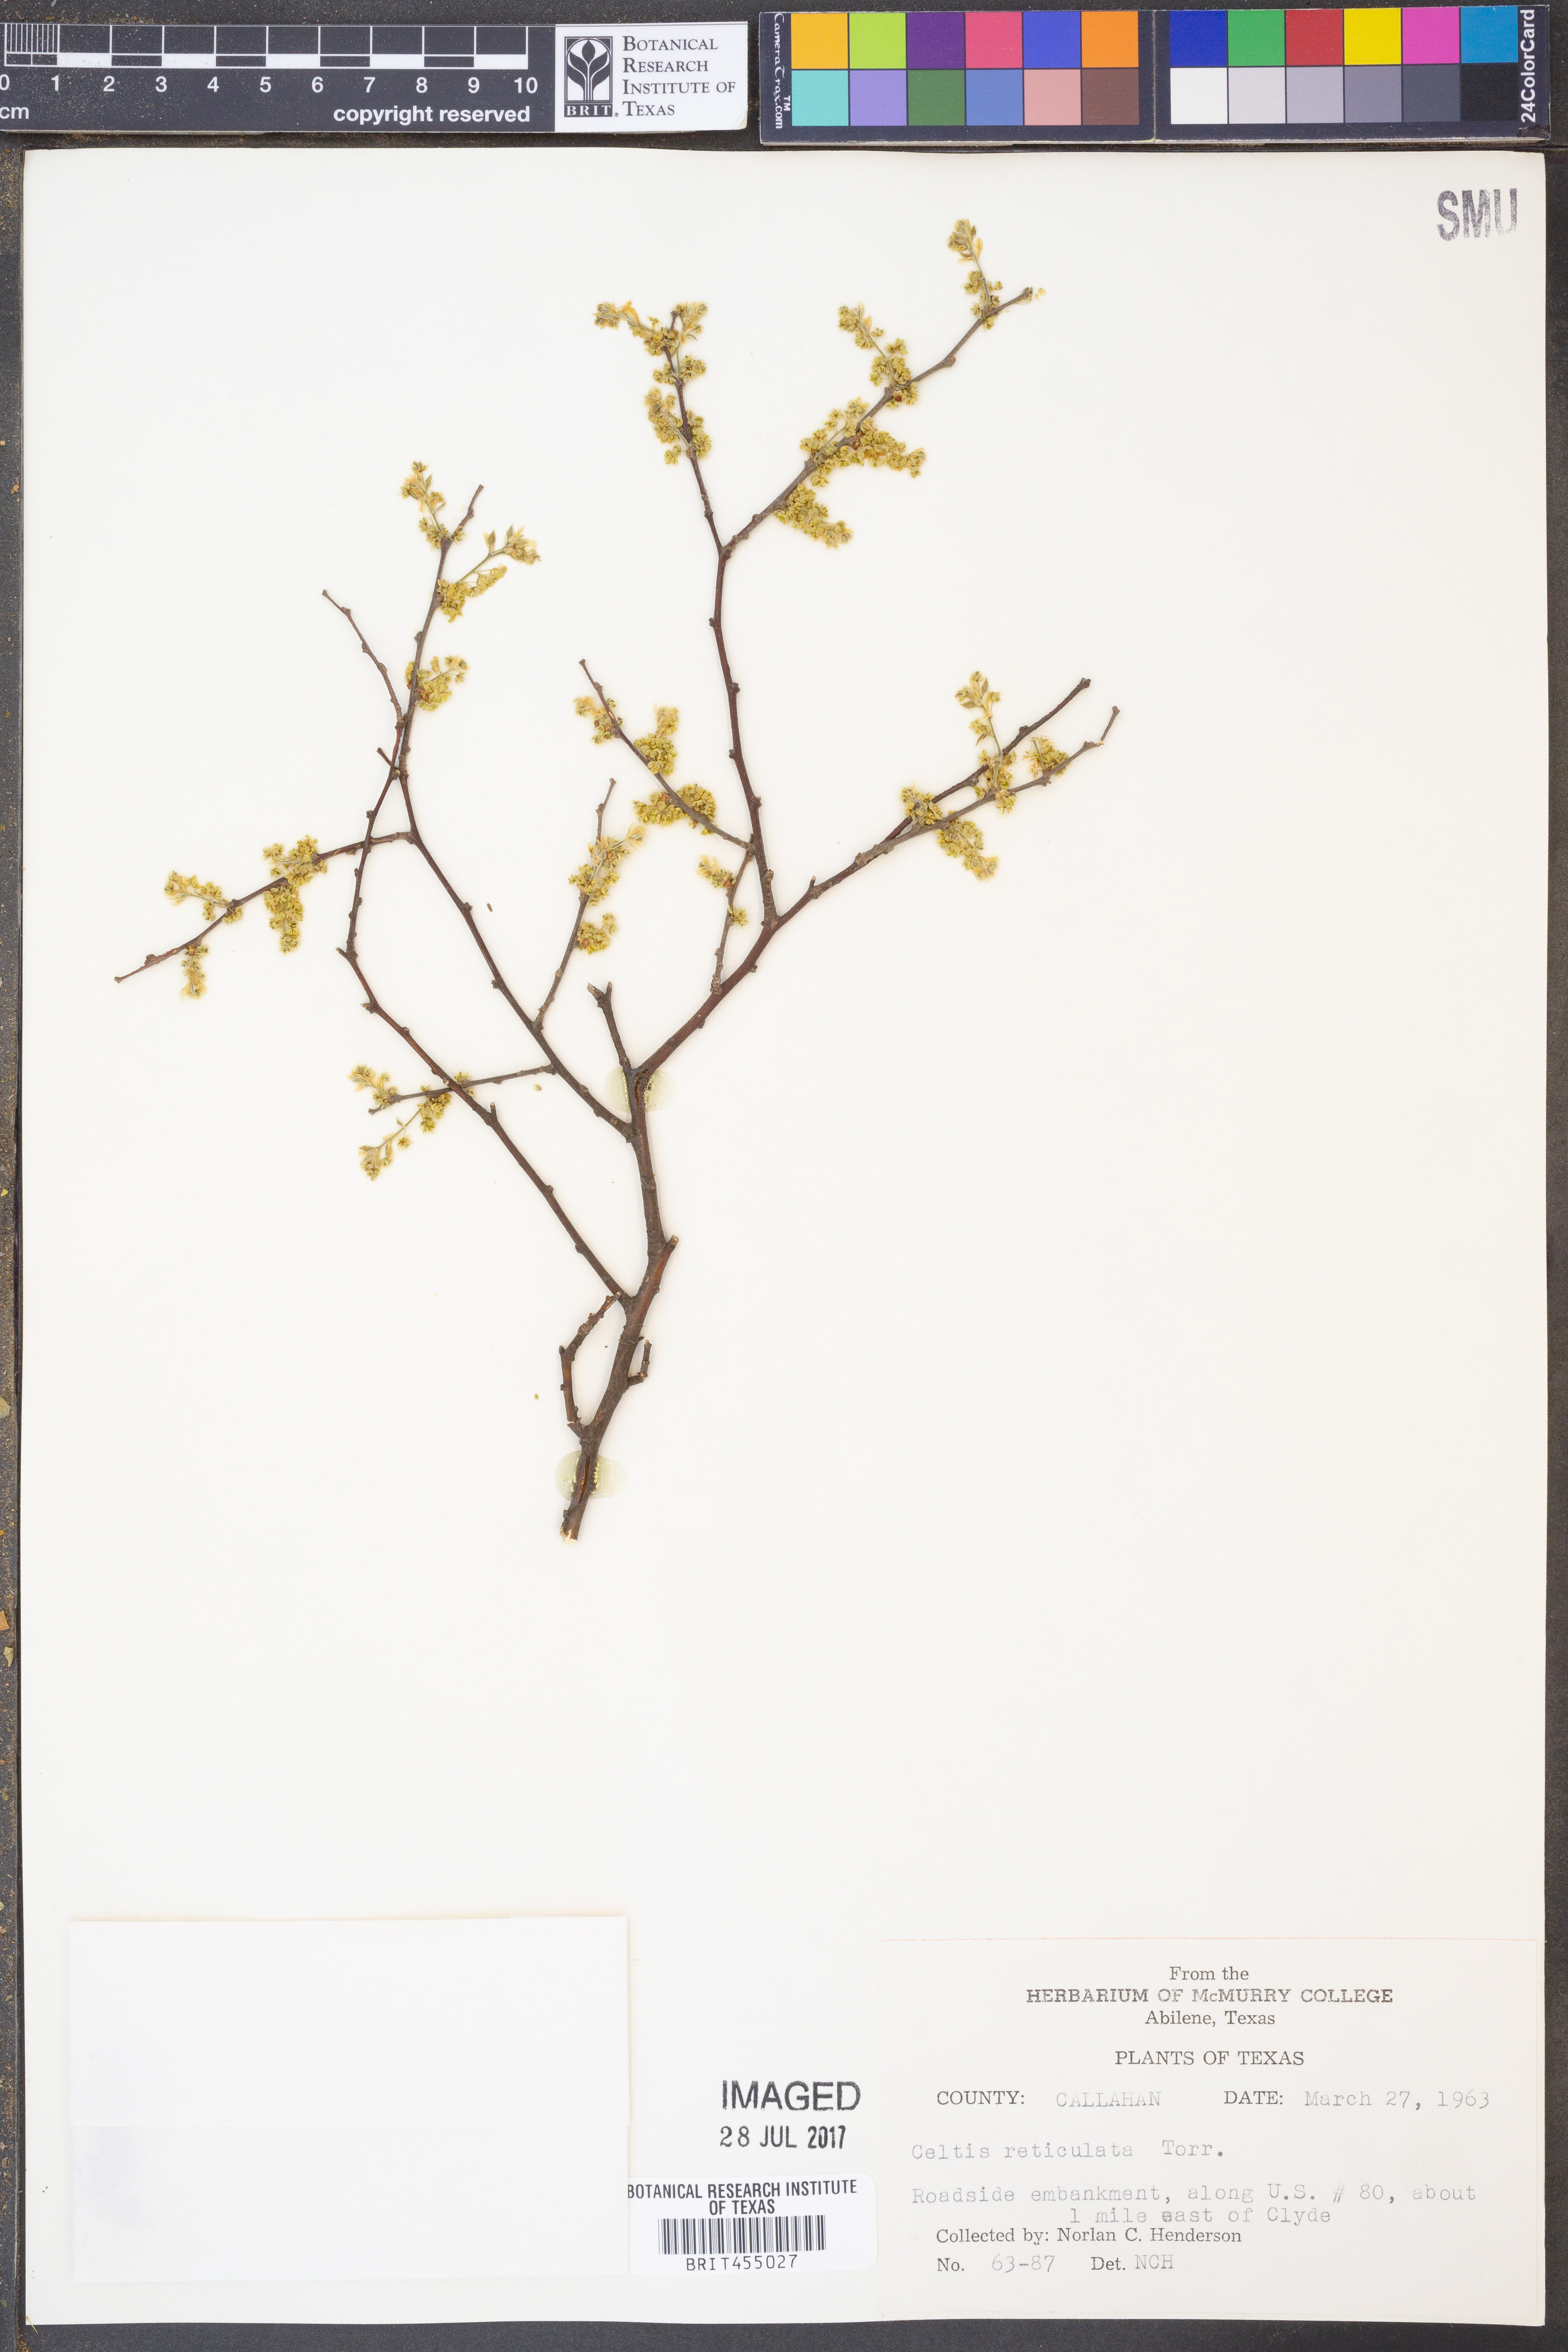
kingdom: Plantae
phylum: Tracheophyta
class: Magnoliopsida
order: Rosales
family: Cannabaceae
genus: Celtis
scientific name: Celtis reticulata
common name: Netleaf hackberry
